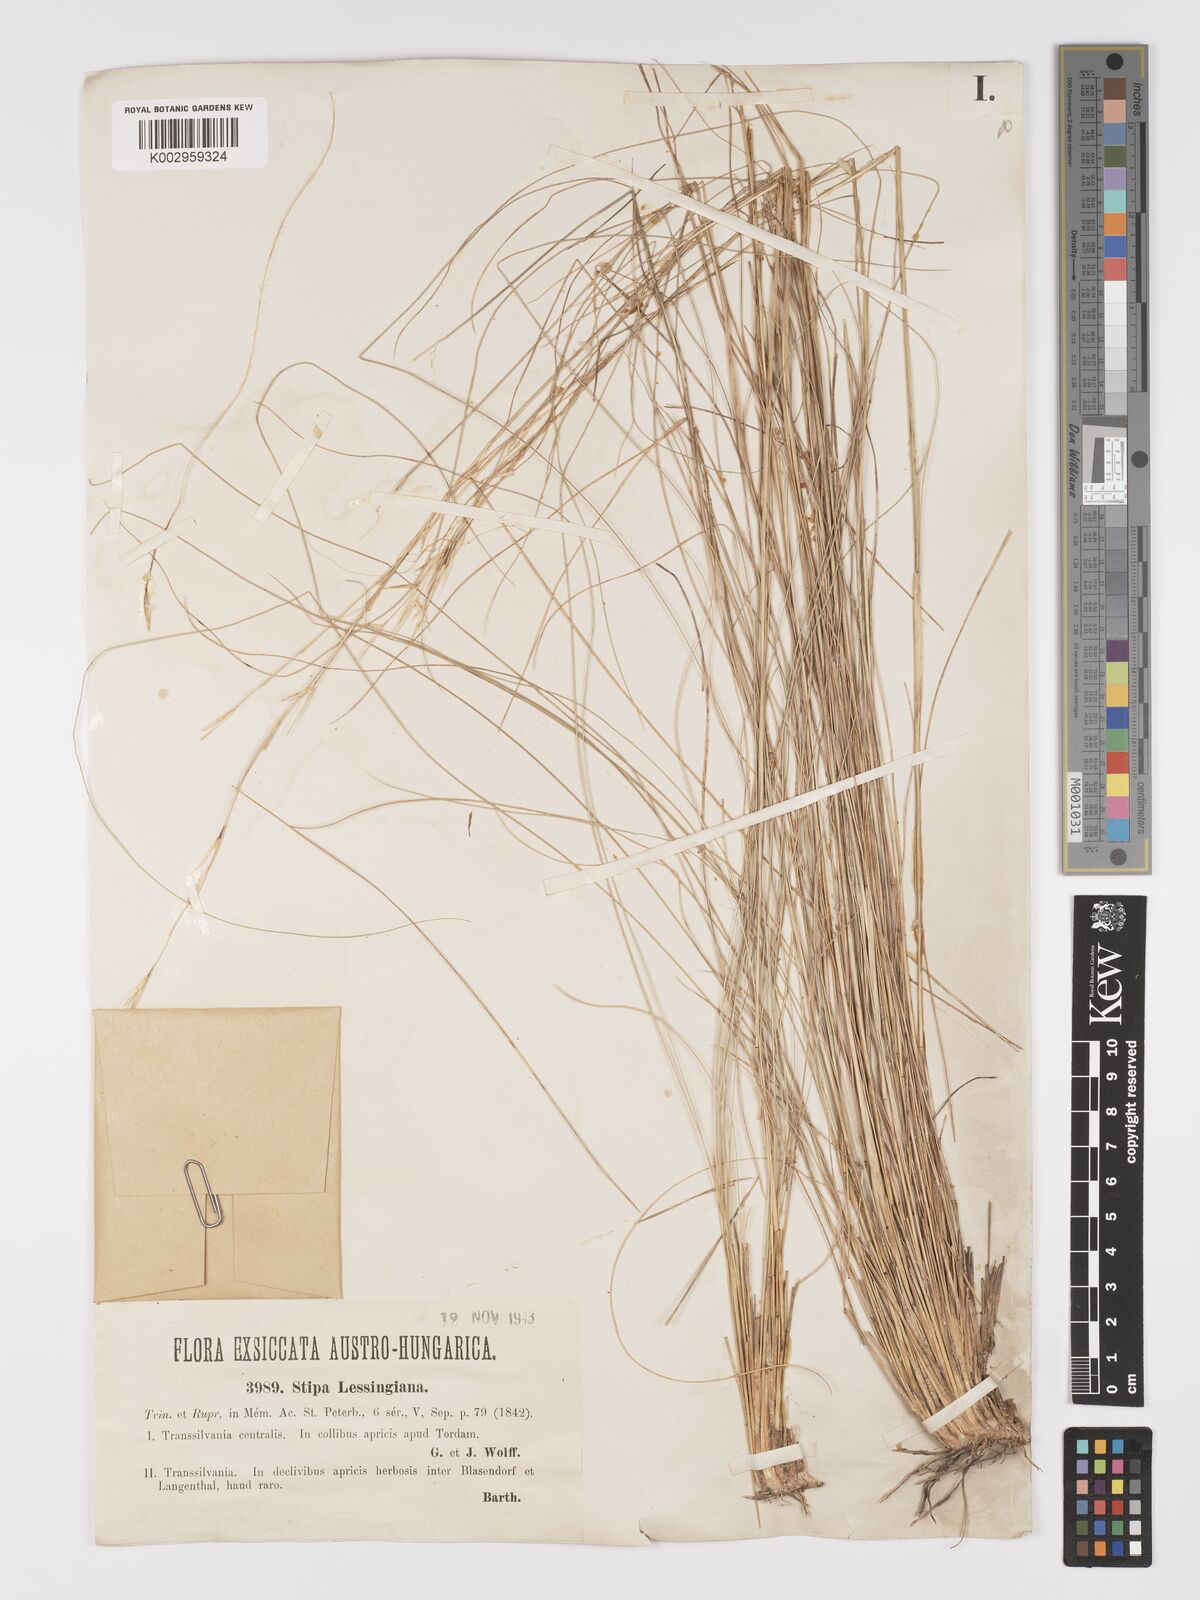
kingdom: Plantae
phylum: Tracheophyta
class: Liliopsida
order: Poales
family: Poaceae
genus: Stipa
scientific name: Stipa lessingiana
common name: Needle grass
